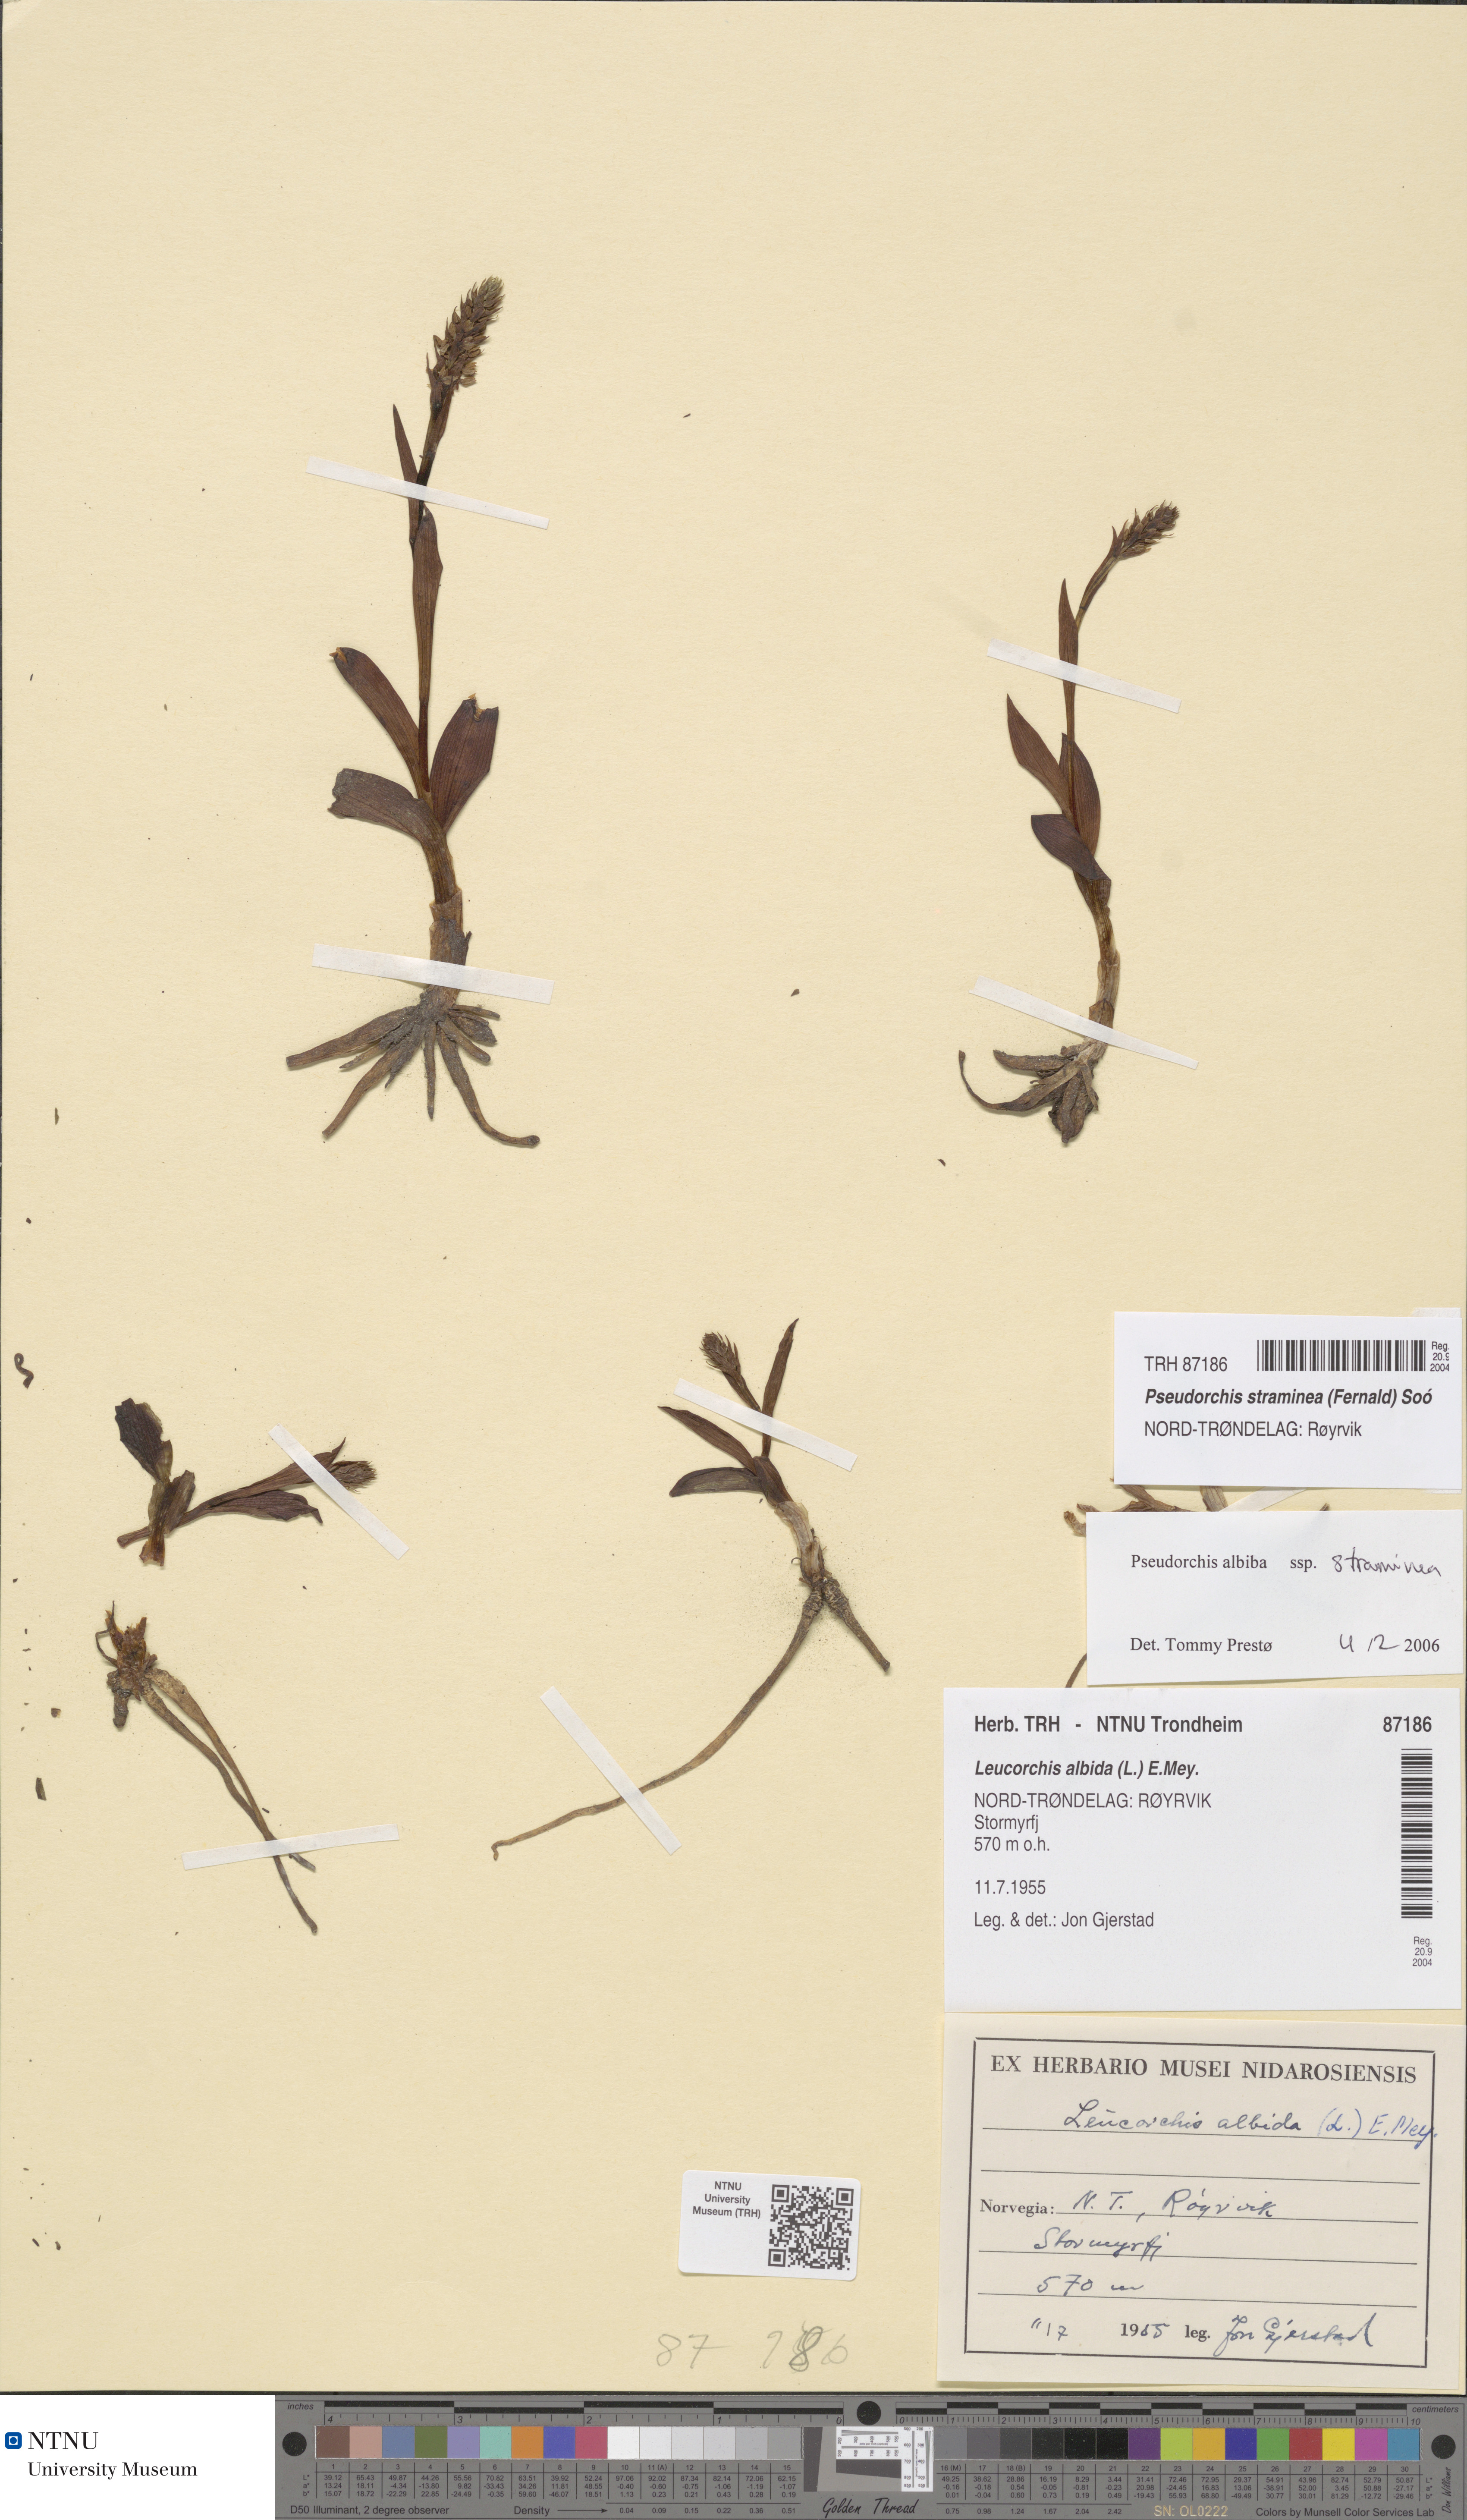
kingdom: Plantae
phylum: Tracheophyta
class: Liliopsida
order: Asparagales
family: Orchidaceae
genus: Pseudorchis
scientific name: Pseudorchis straminea
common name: Vanilla-scented bog orchid
